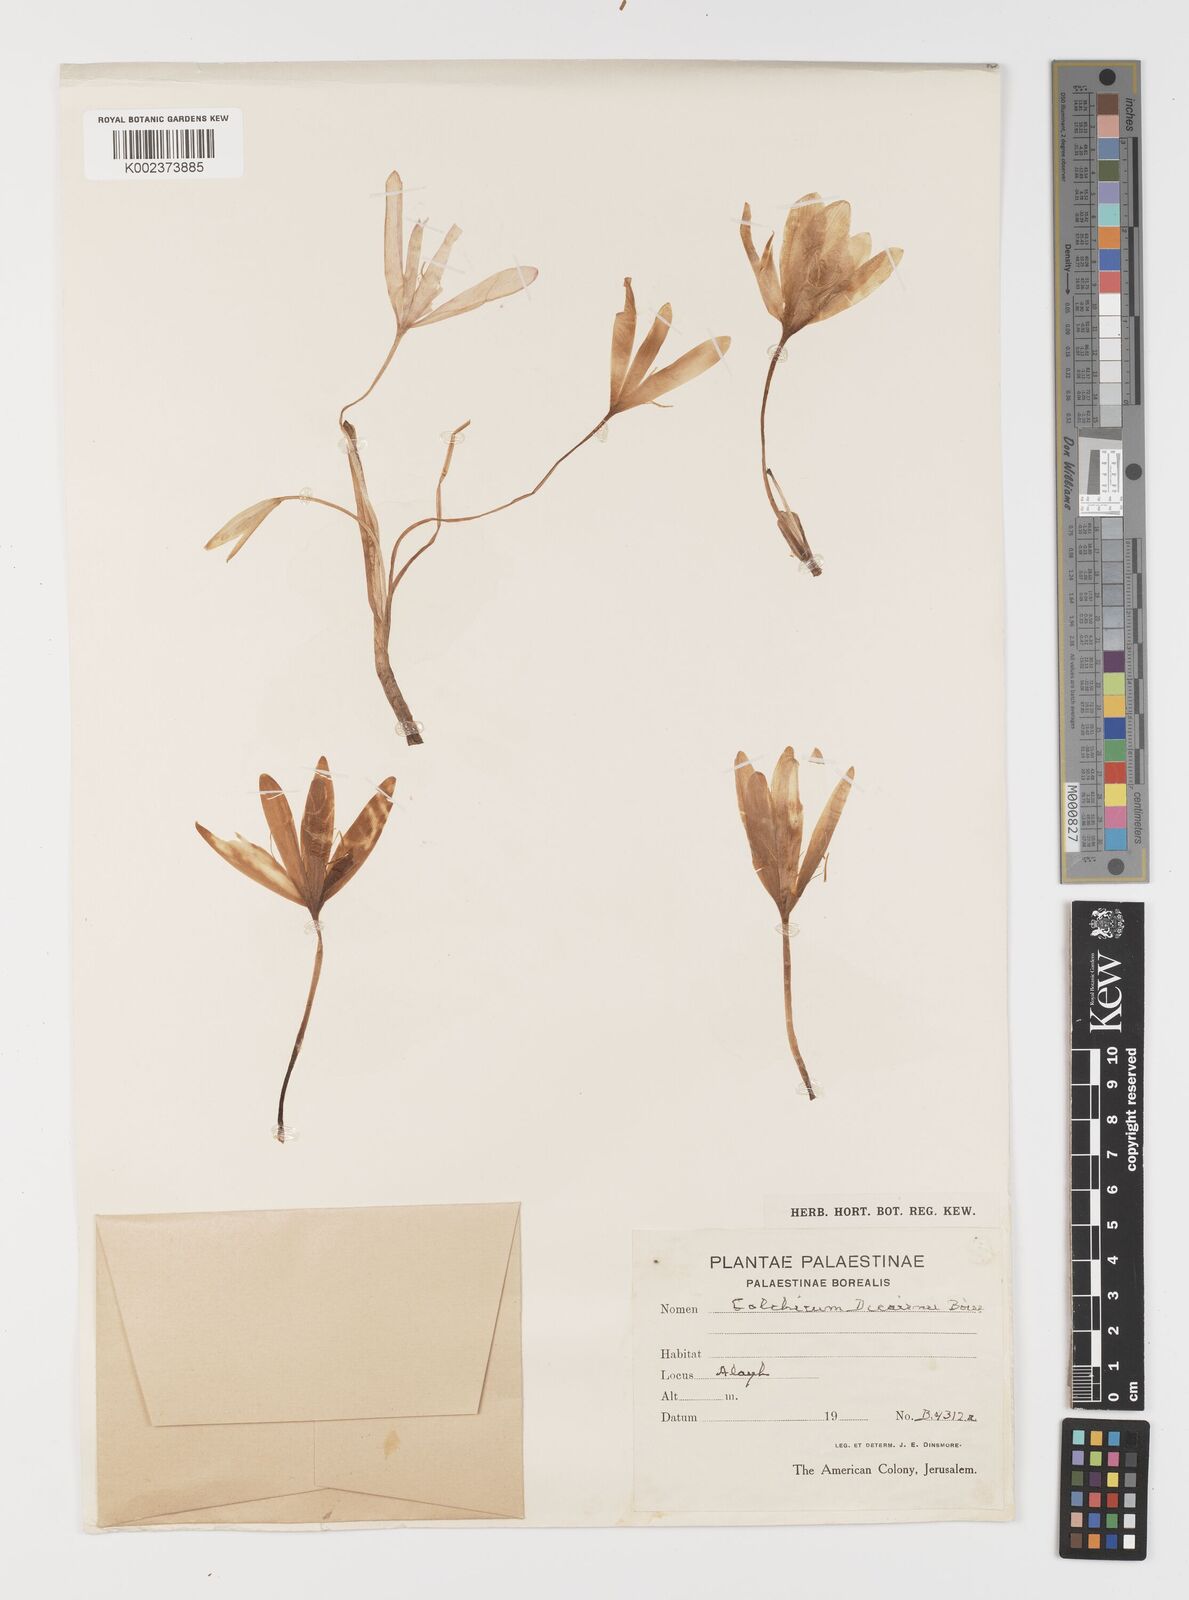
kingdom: Plantae
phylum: Tracheophyta
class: Liliopsida
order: Liliales
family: Colchicaceae
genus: Colchicum
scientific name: Colchicum decaisnei
